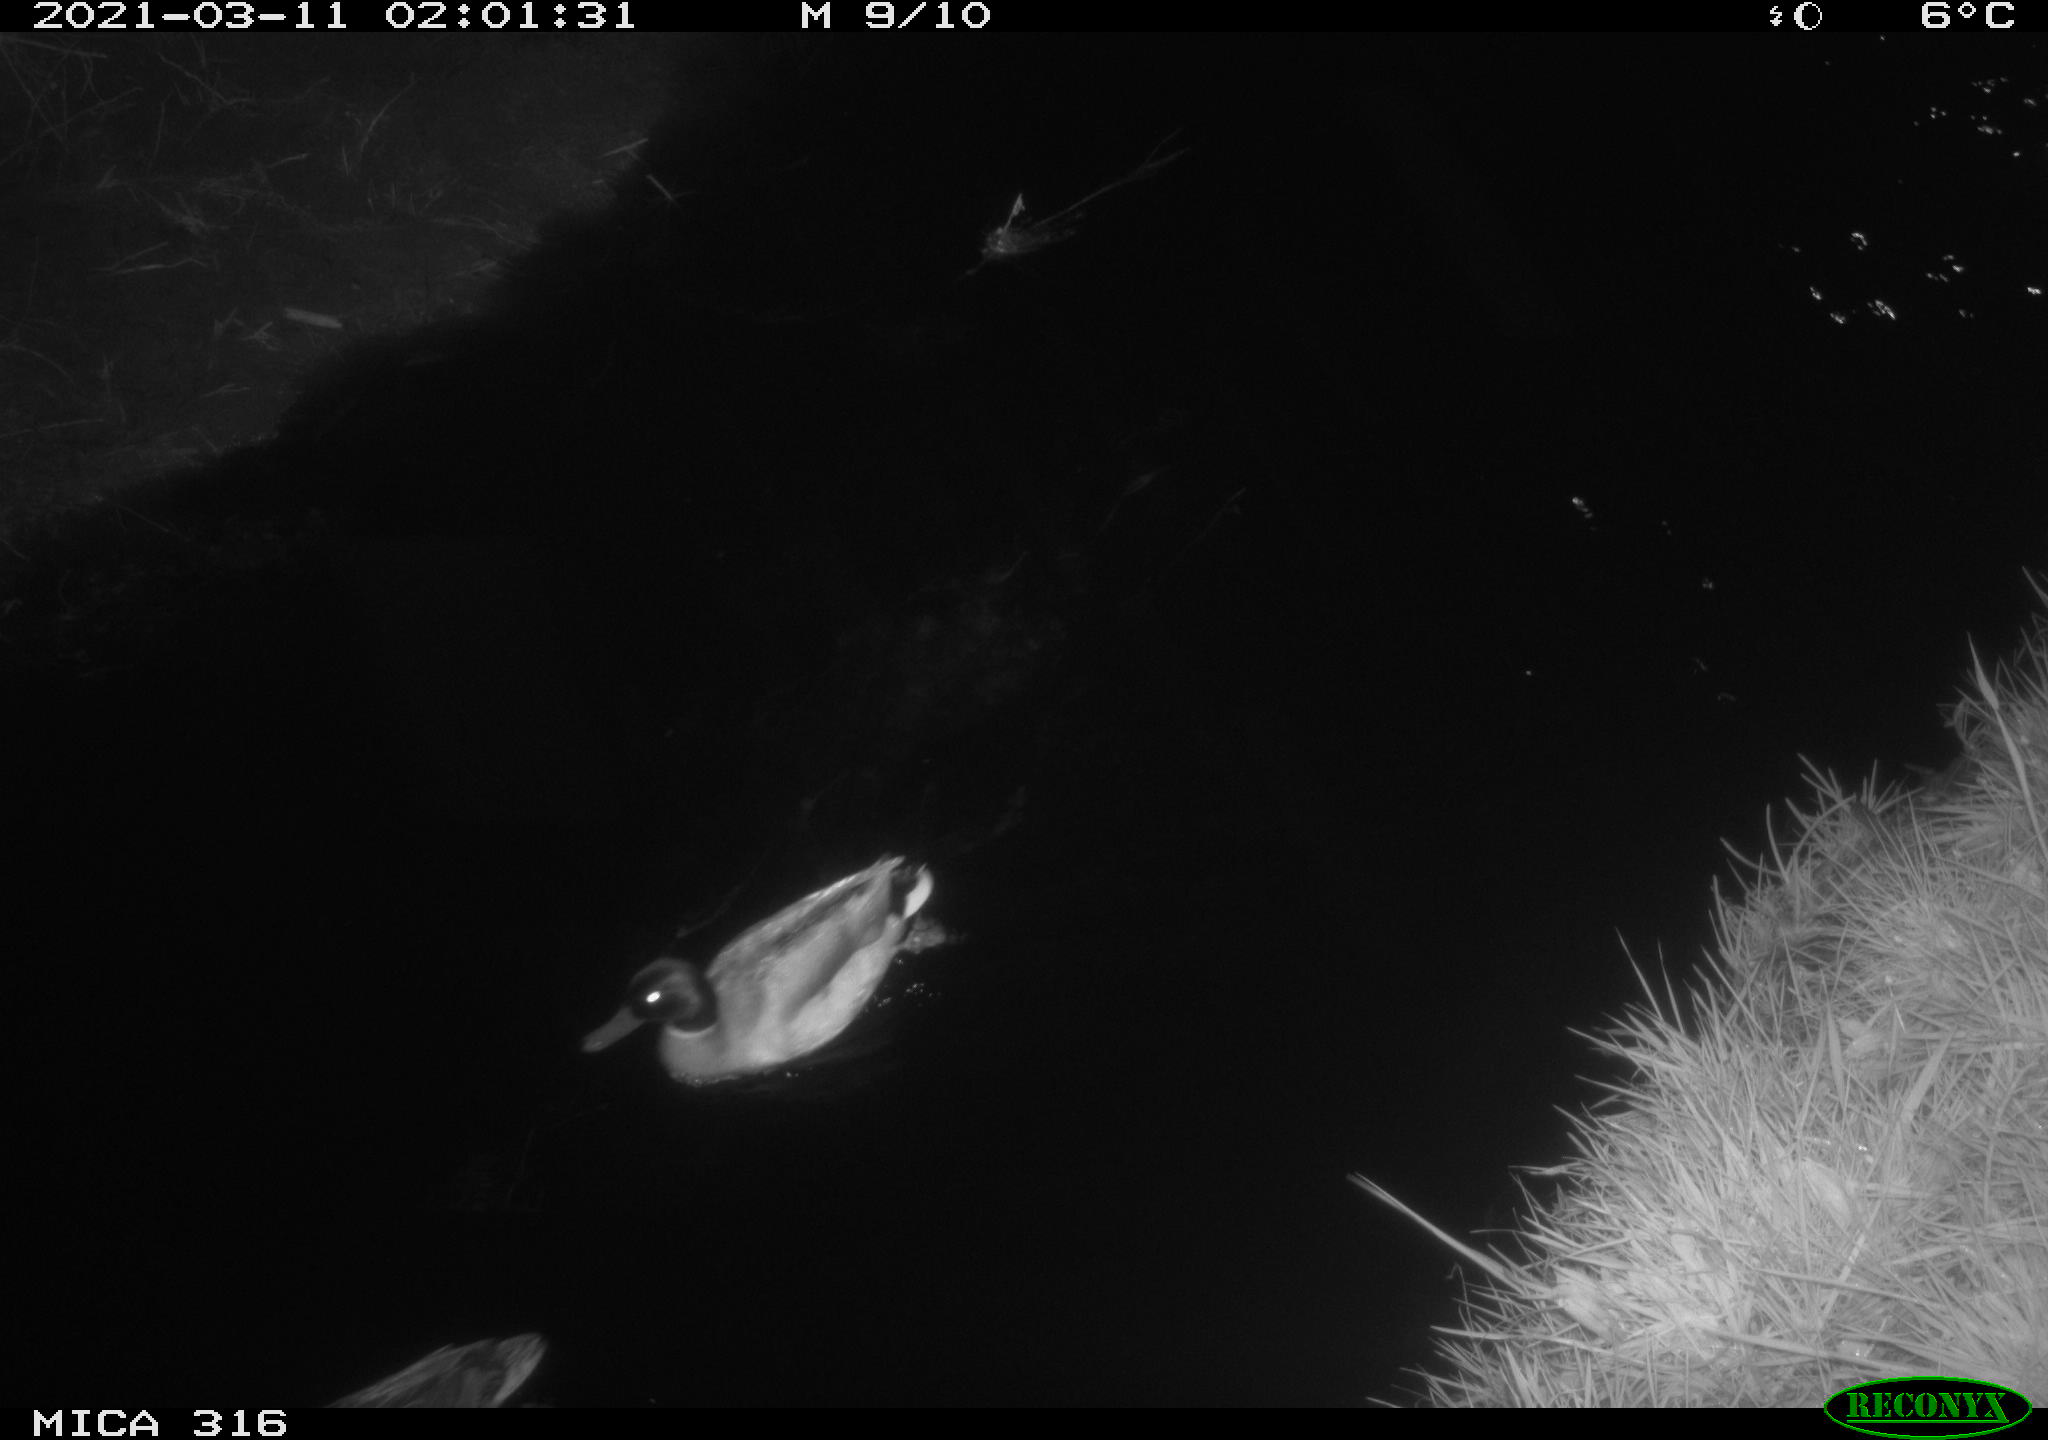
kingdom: Animalia
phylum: Chordata
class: Aves
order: Anseriformes
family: Anatidae
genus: Anas
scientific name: Anas platyrhynchos
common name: Mallard
